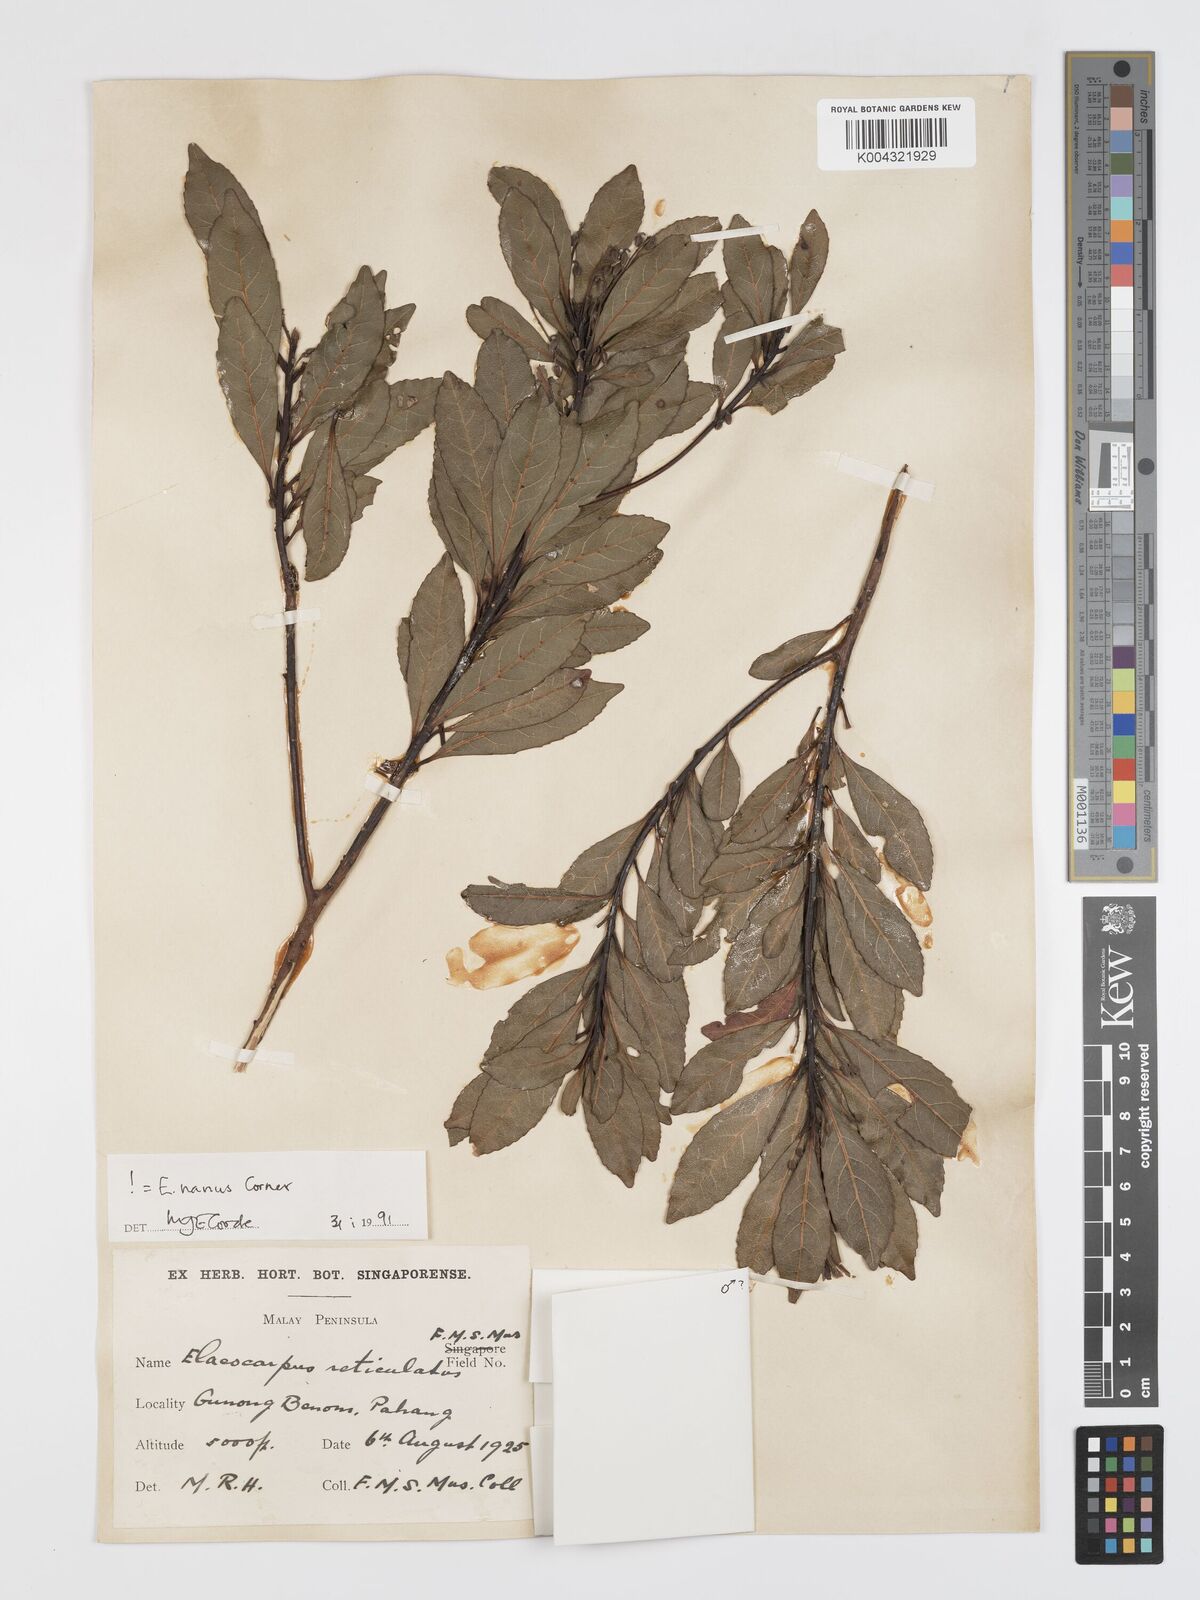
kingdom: Plantae
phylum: Tracheophyta
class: Magnoliopsida
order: Oxalidales
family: Elaeocarpaceae
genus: Elaeocarpus
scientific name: Elaeocarpus nanus
